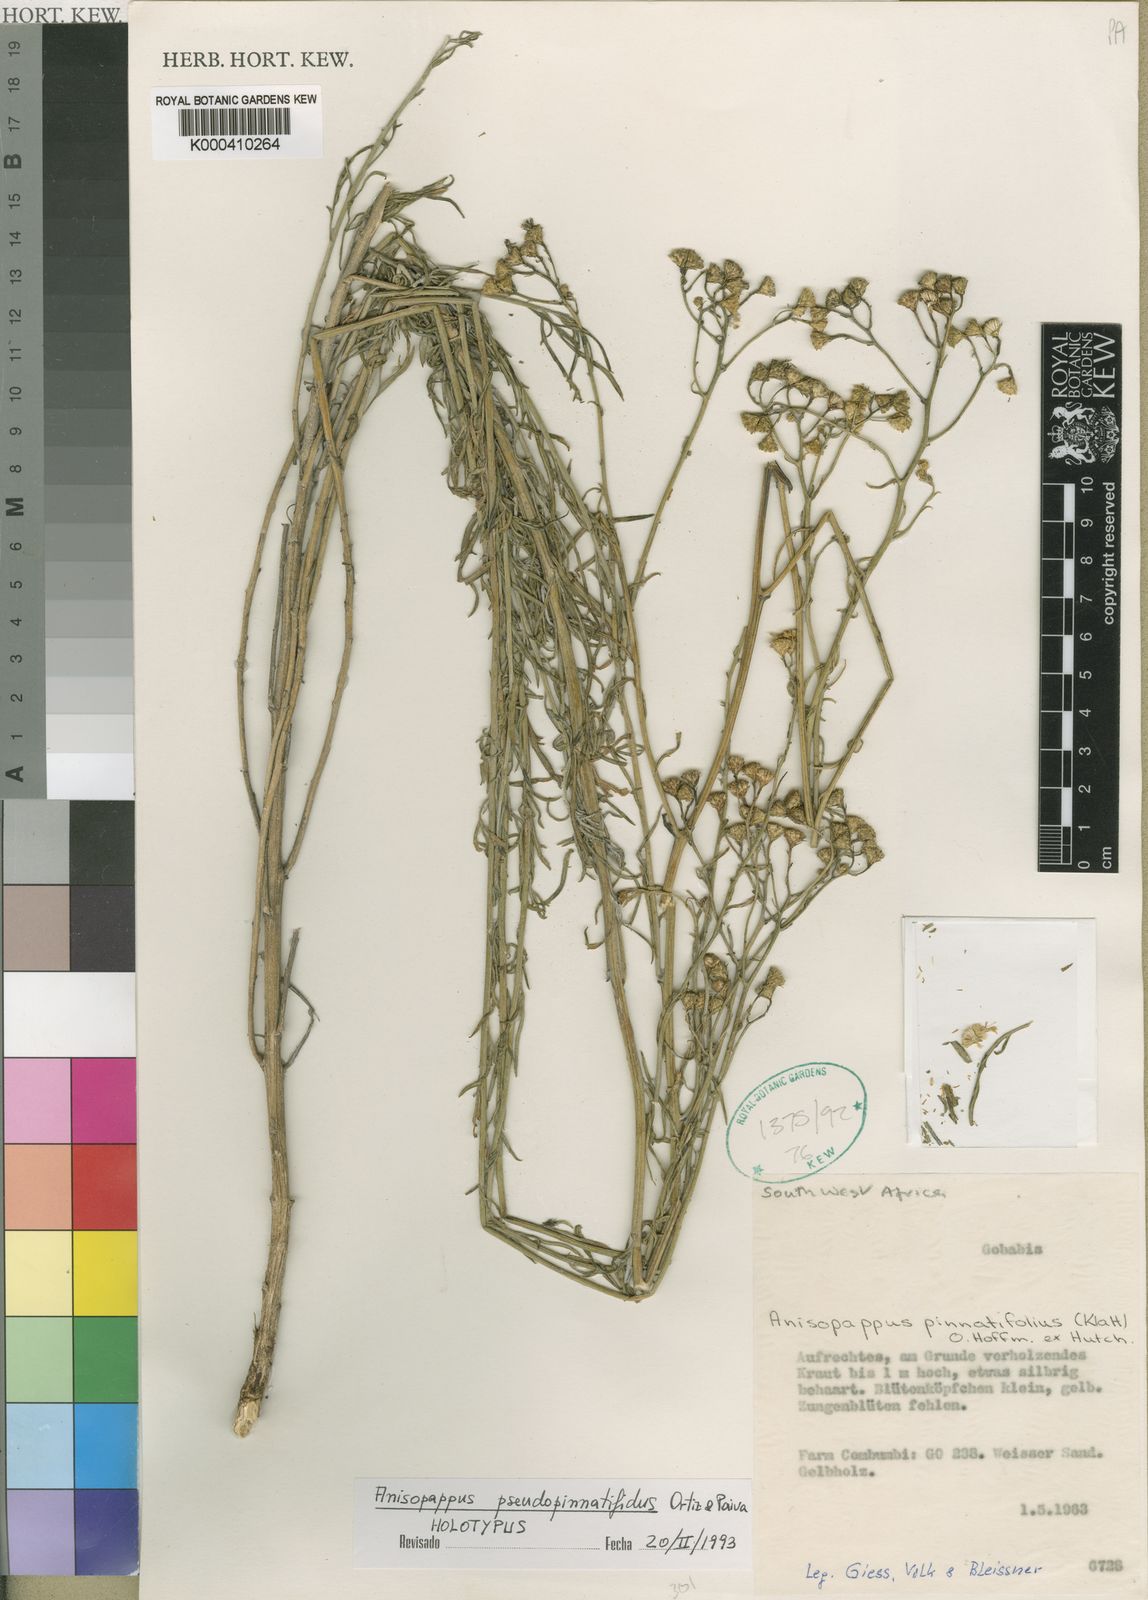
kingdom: Plantae
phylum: Tracheophyta
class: Magnoliopsida
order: Asterales
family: Asteraceae
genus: Anisopappus
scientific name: Anisopappus
